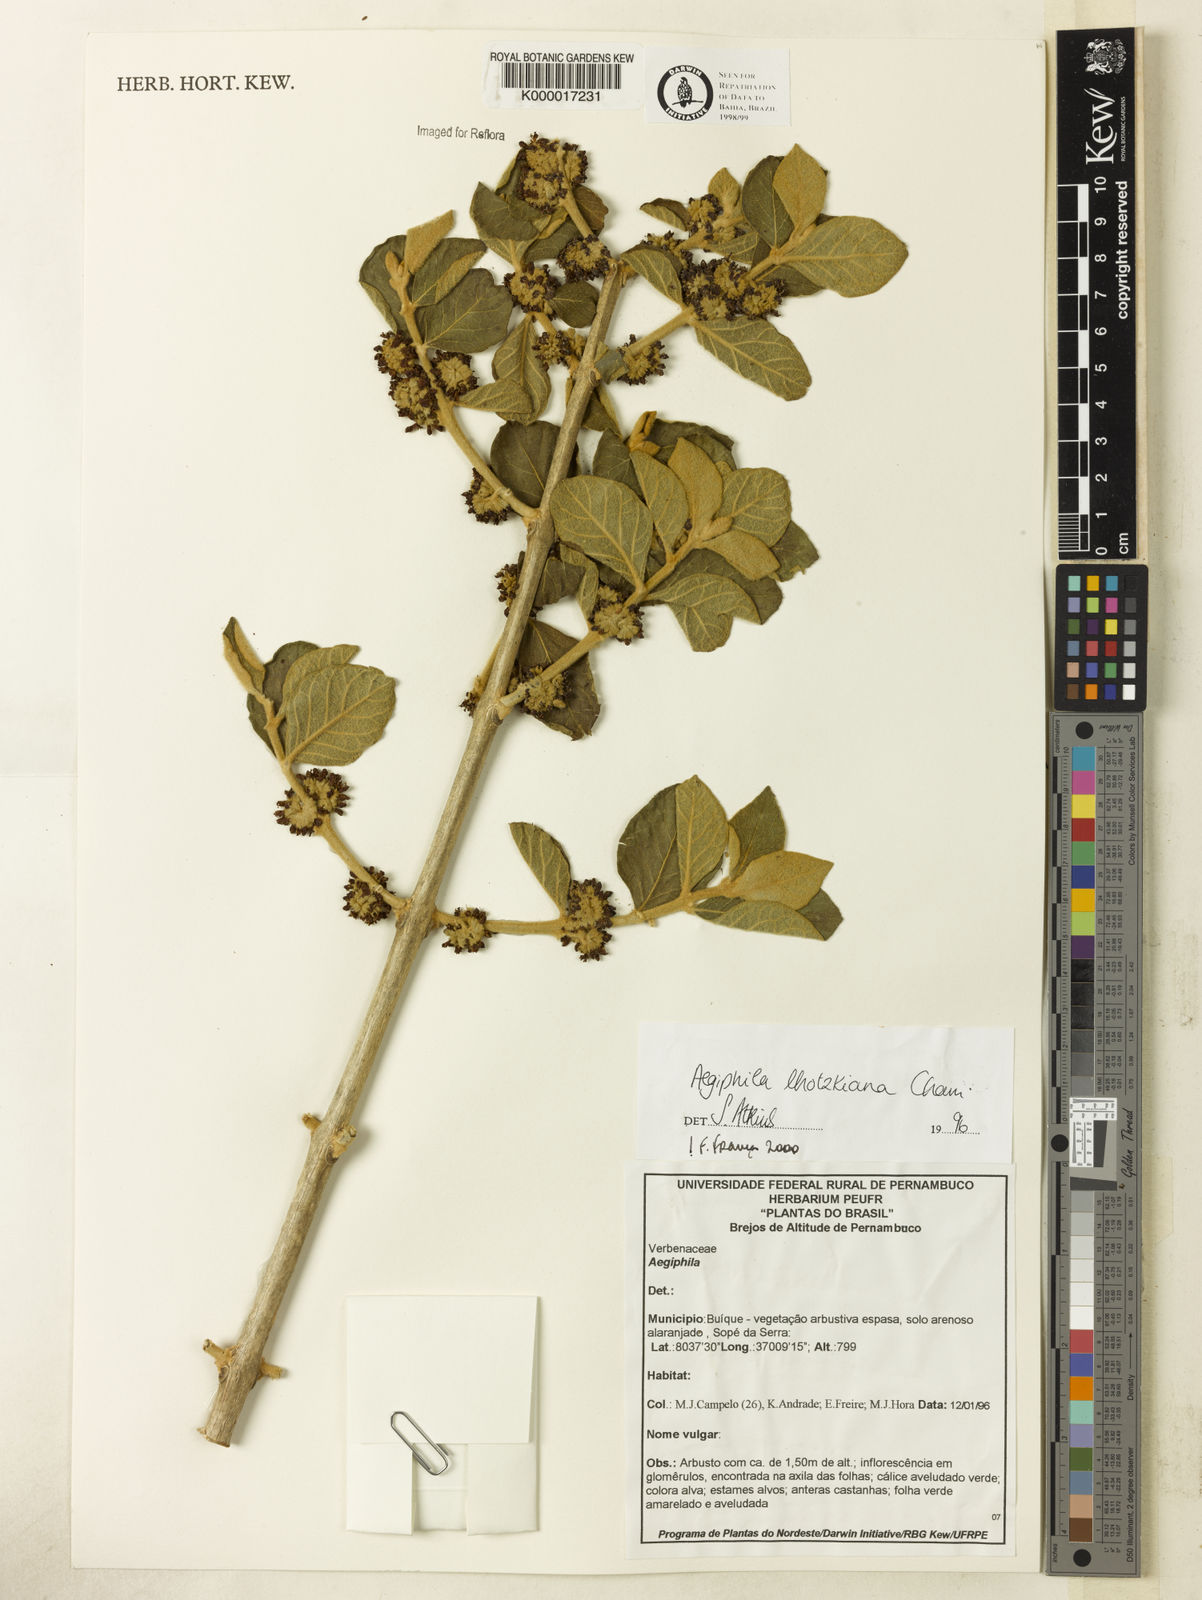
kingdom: Plantae
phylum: Tracheophyta
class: Magnoliopsida
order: Lamiales
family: Lamiaceae
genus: Aegiphila
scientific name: Aegiphila verticillata
